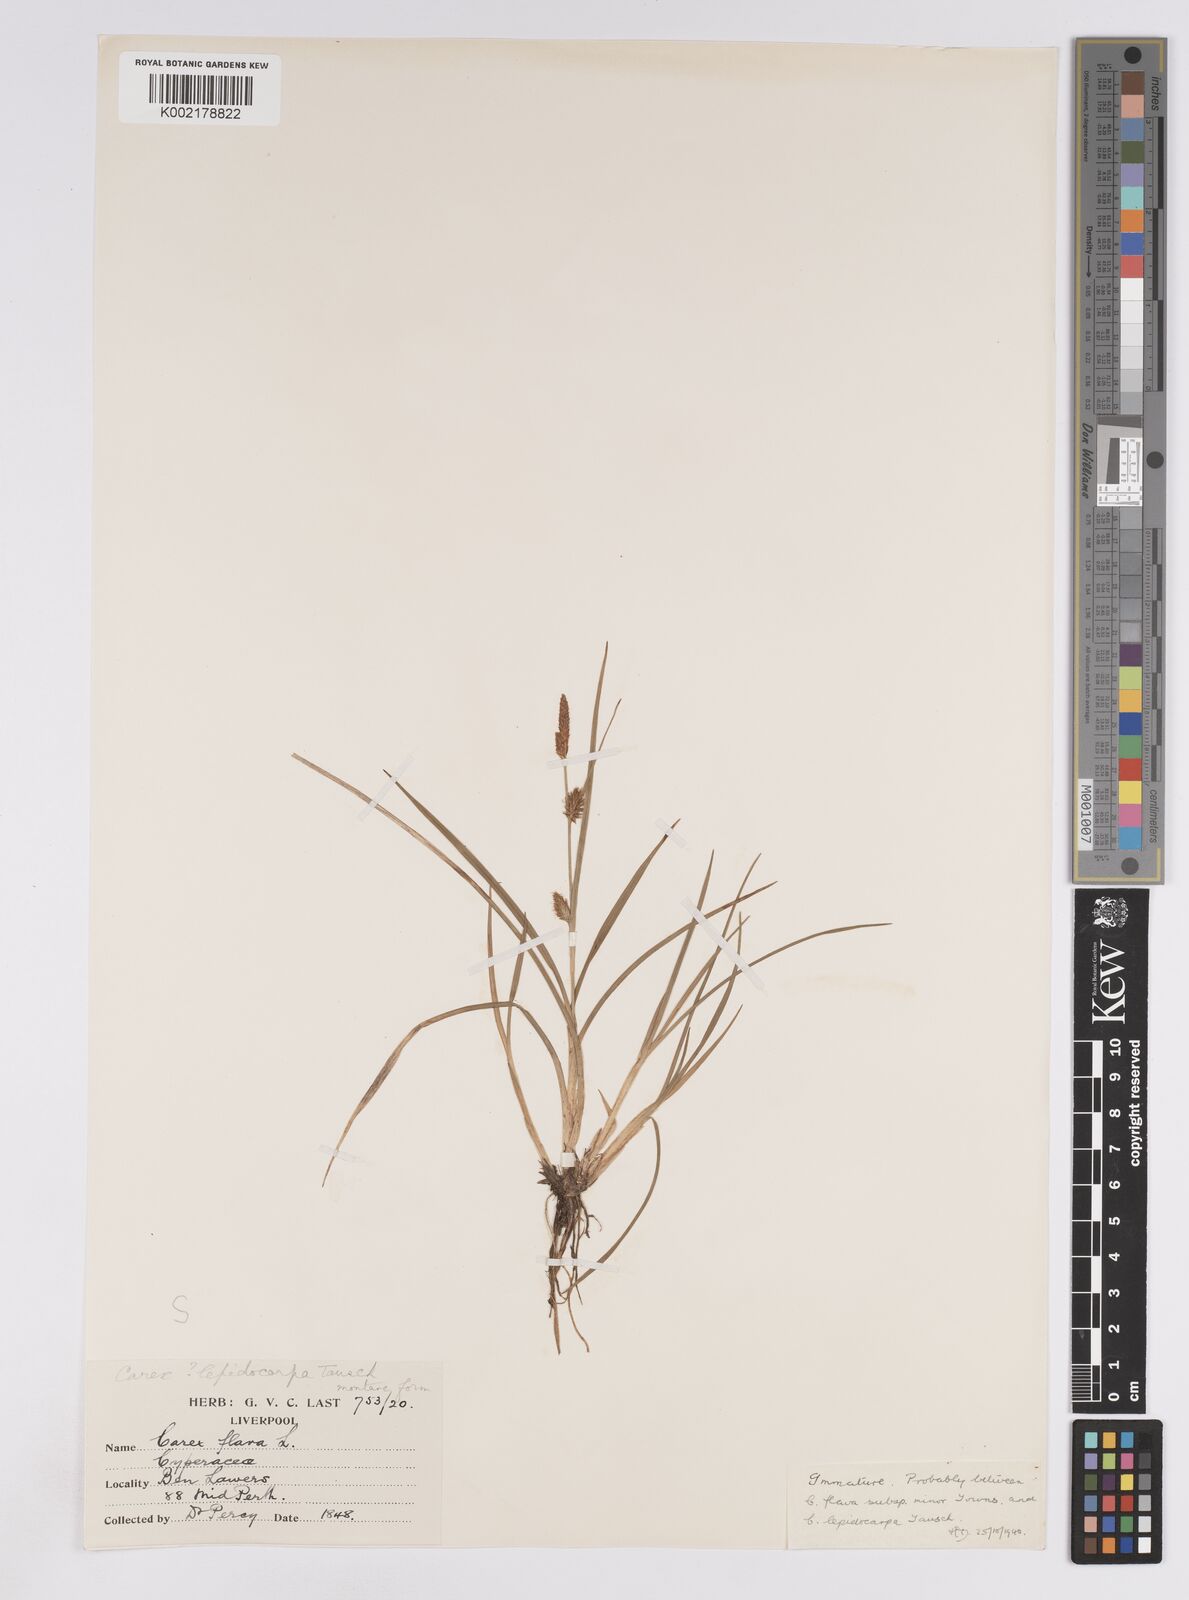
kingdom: Plantae
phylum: Tracheophyta
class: Liliopsida
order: Poales
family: Cyperaceae
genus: Carex
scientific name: Carex lepidocarpa
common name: Long-stalked yellow-sedge
